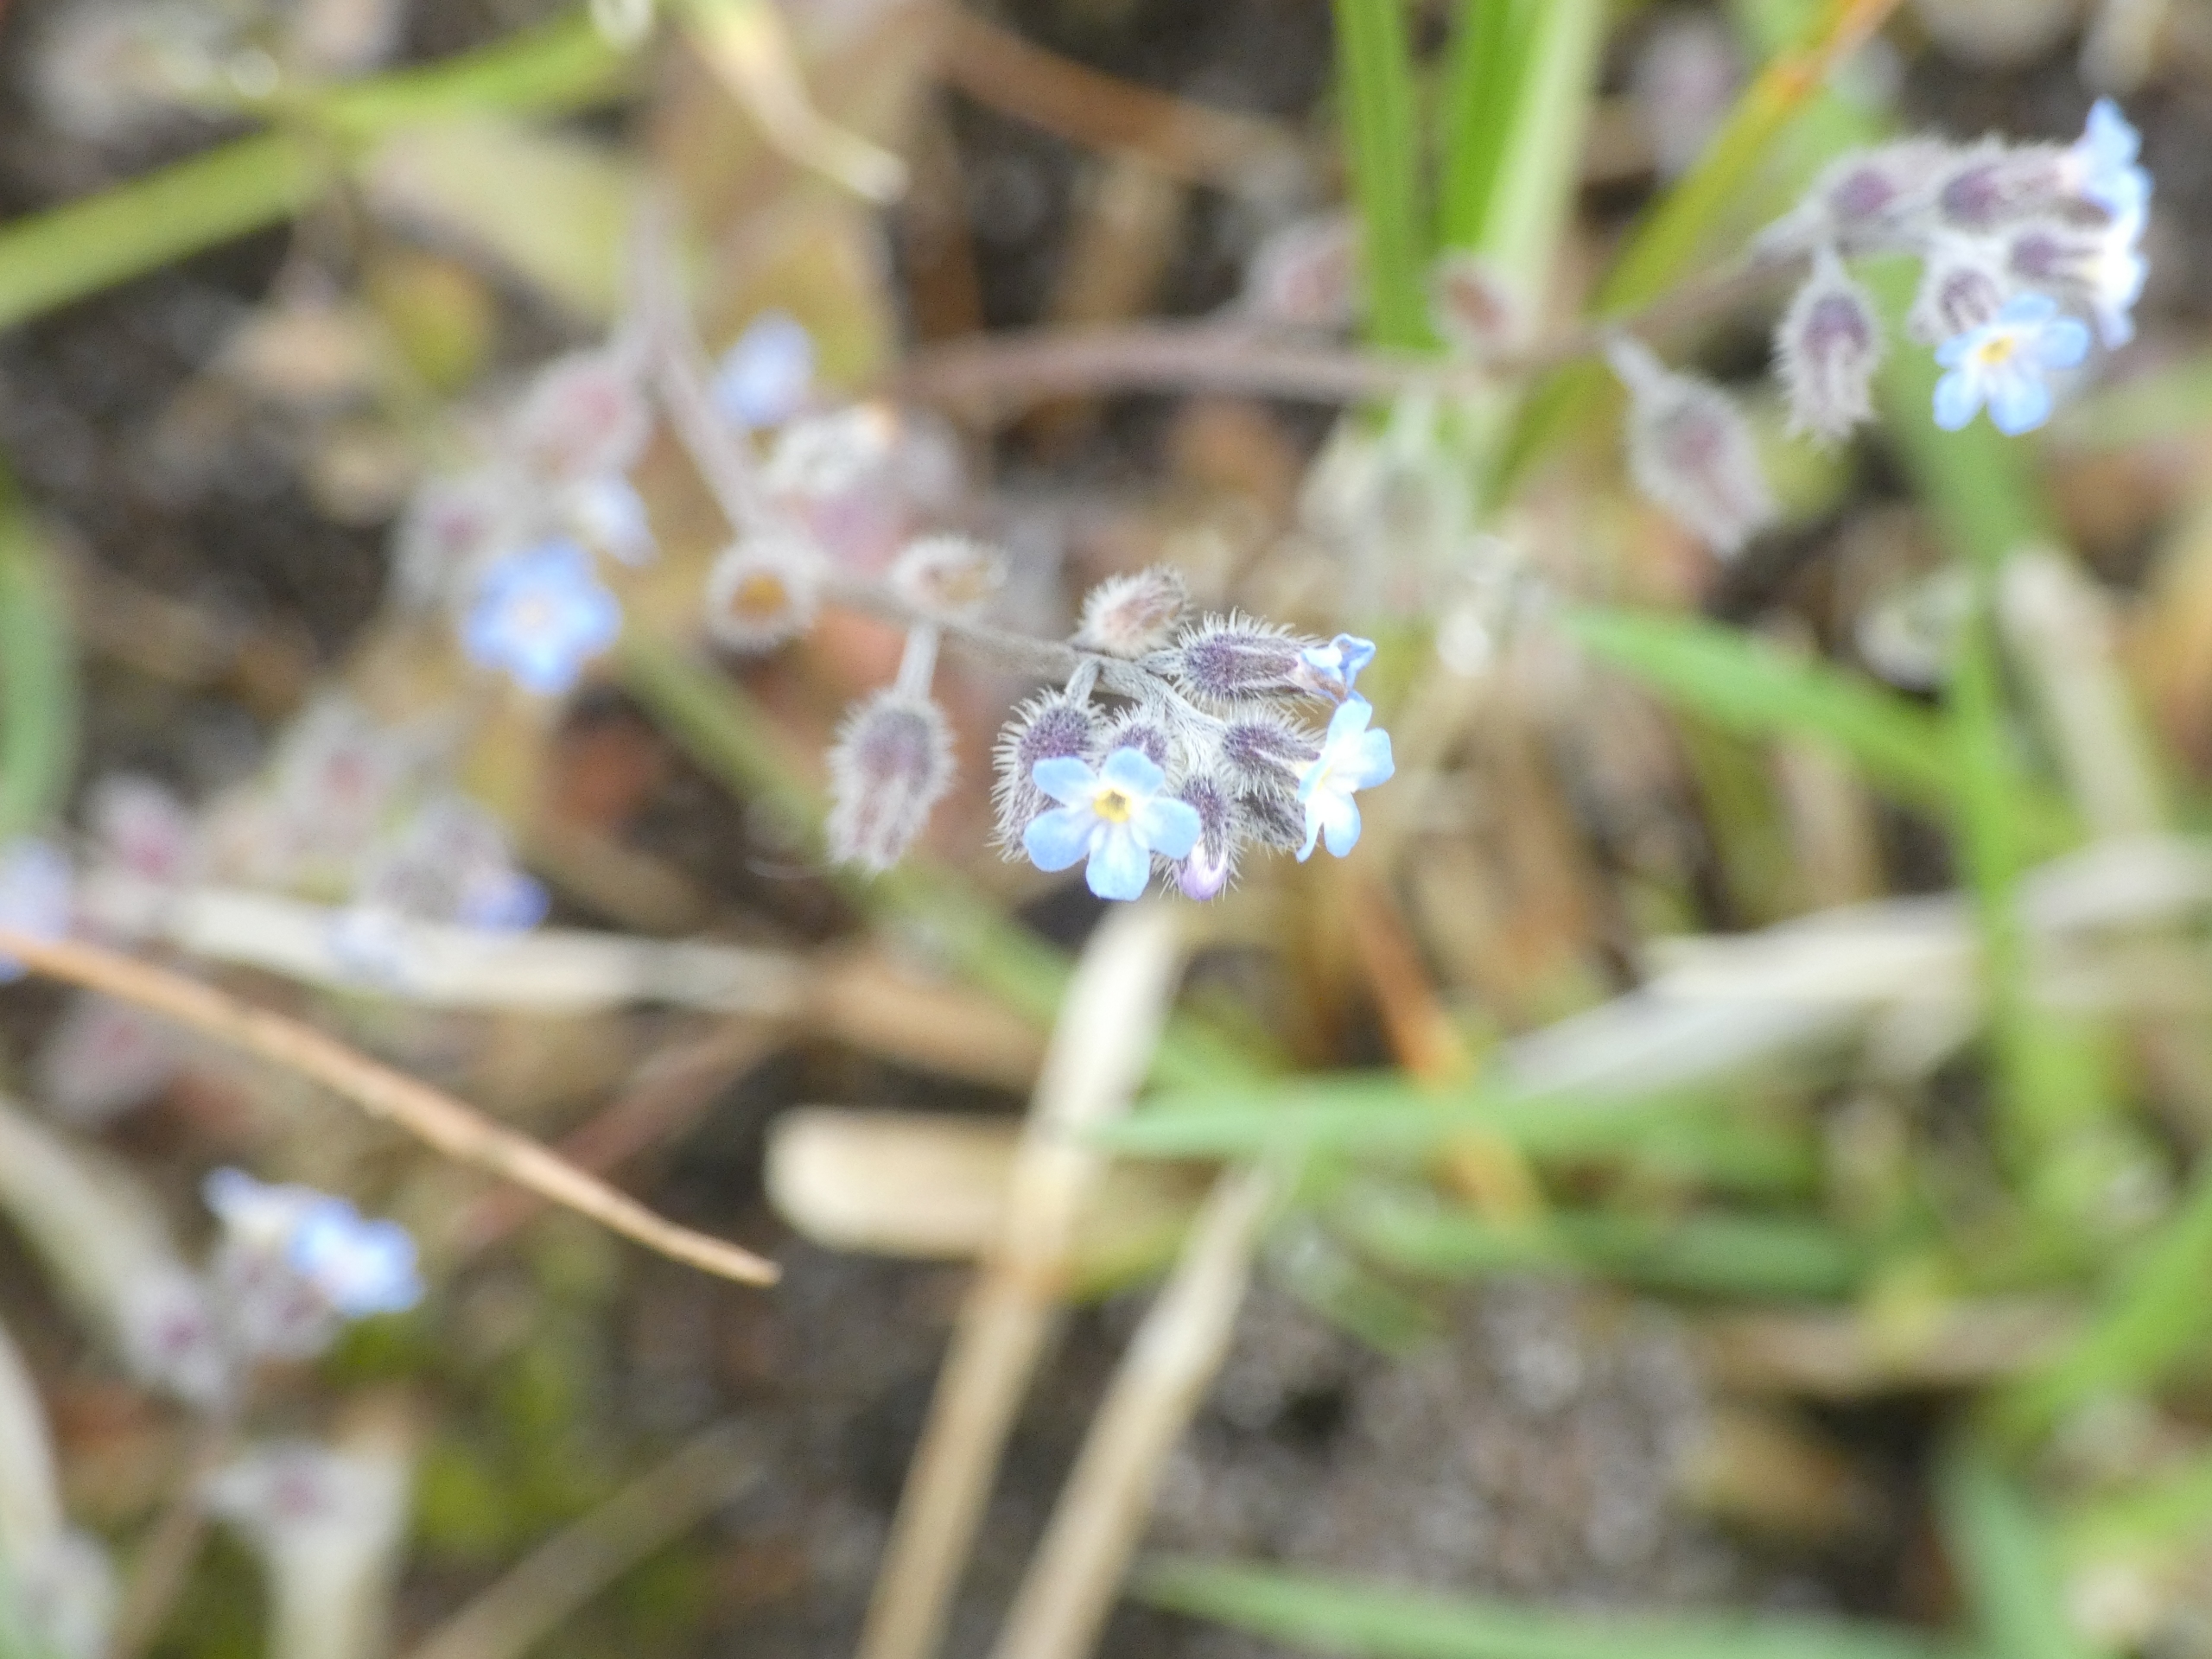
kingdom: Plantae
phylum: Tracheophyta
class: Magnoliopsida
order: Boraginales
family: Boraginaceae
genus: Myosotis
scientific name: Myosotis ramosissima
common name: Bakke-forglemmigej
